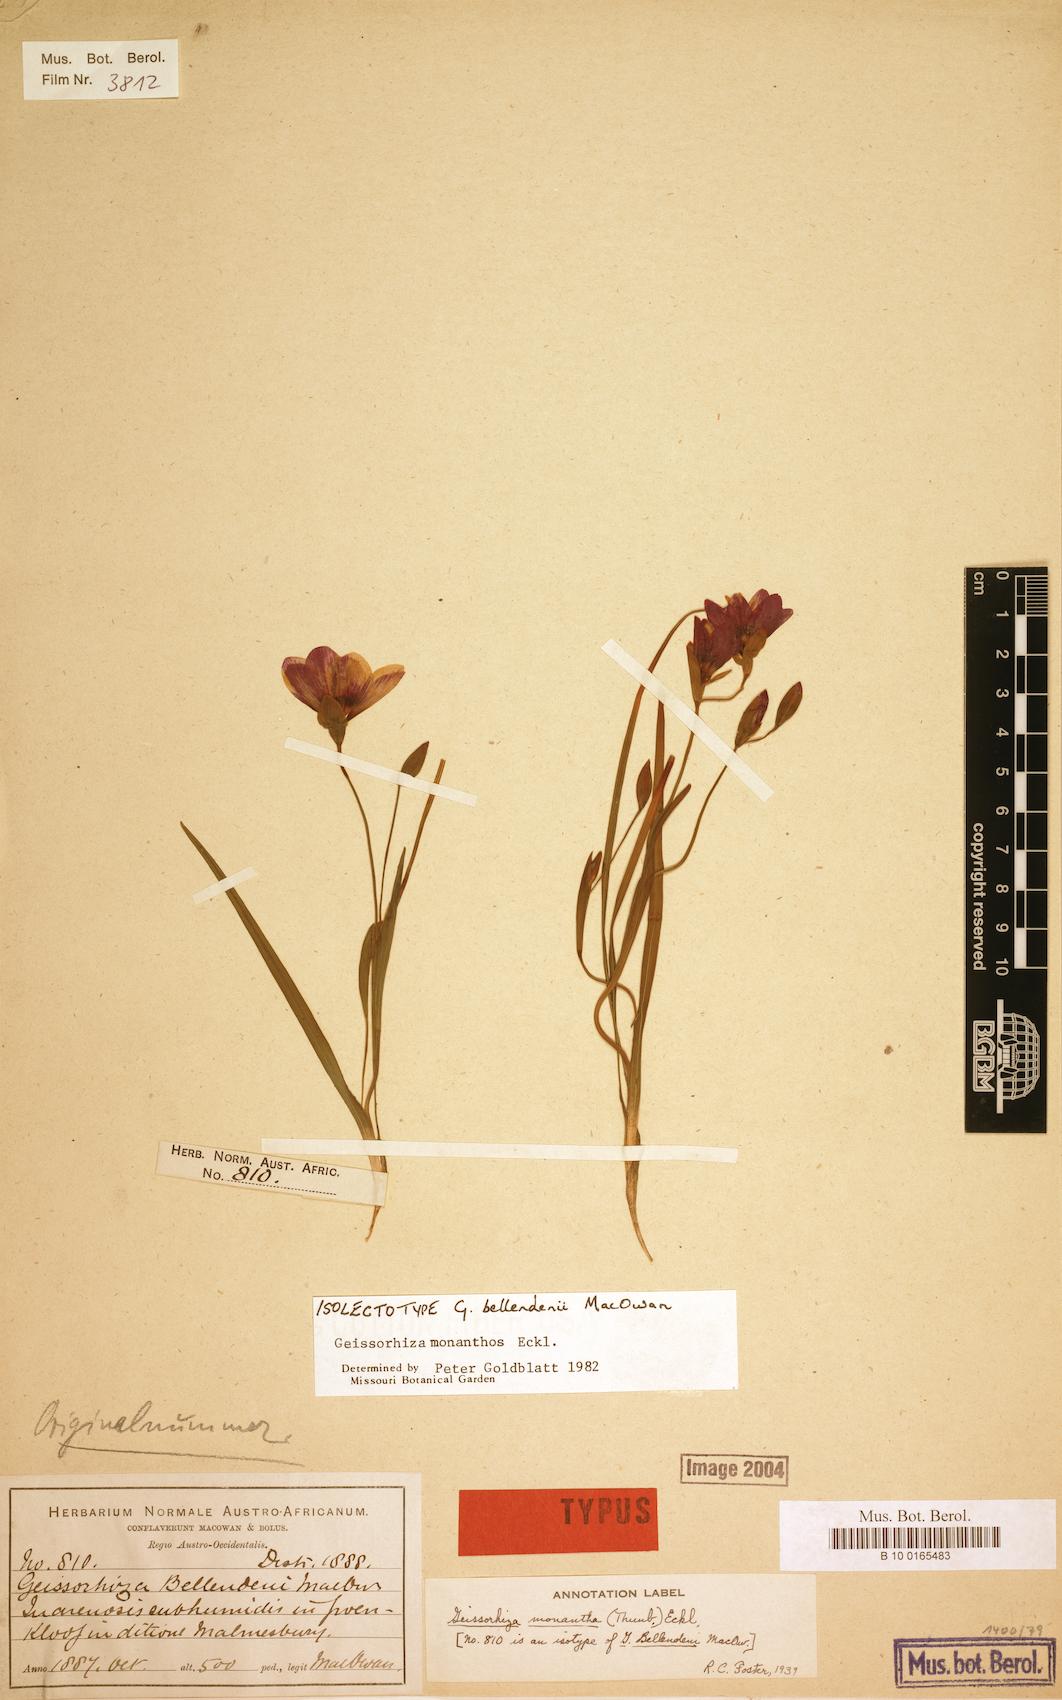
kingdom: Plantae
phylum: Tracheophyta
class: Liliopsida
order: Asparagales
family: Iridaceae
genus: Geissorhiza
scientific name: Geissorhiza monanthos
